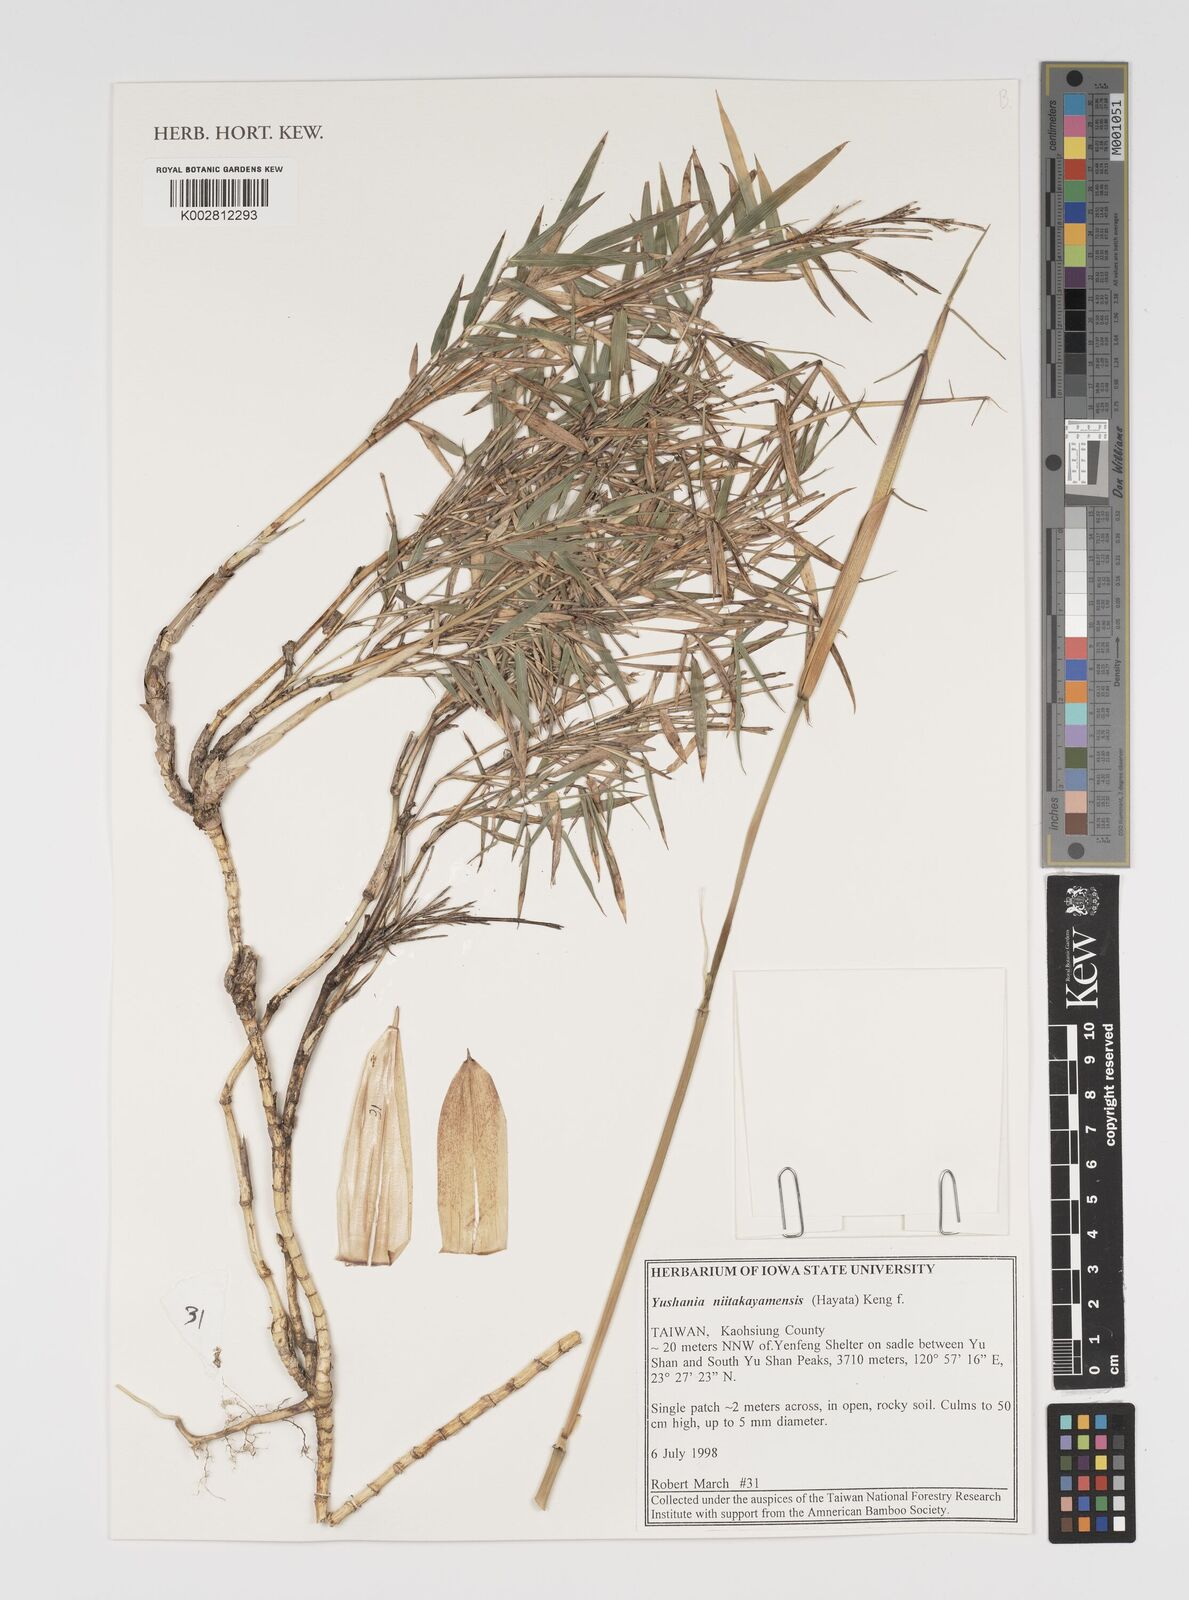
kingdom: Plantae
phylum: Tracheophyta
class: Liliopsida
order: Poales
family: Poaceae
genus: Yushania
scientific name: Yushania niitakayamensis
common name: Yushan cane
